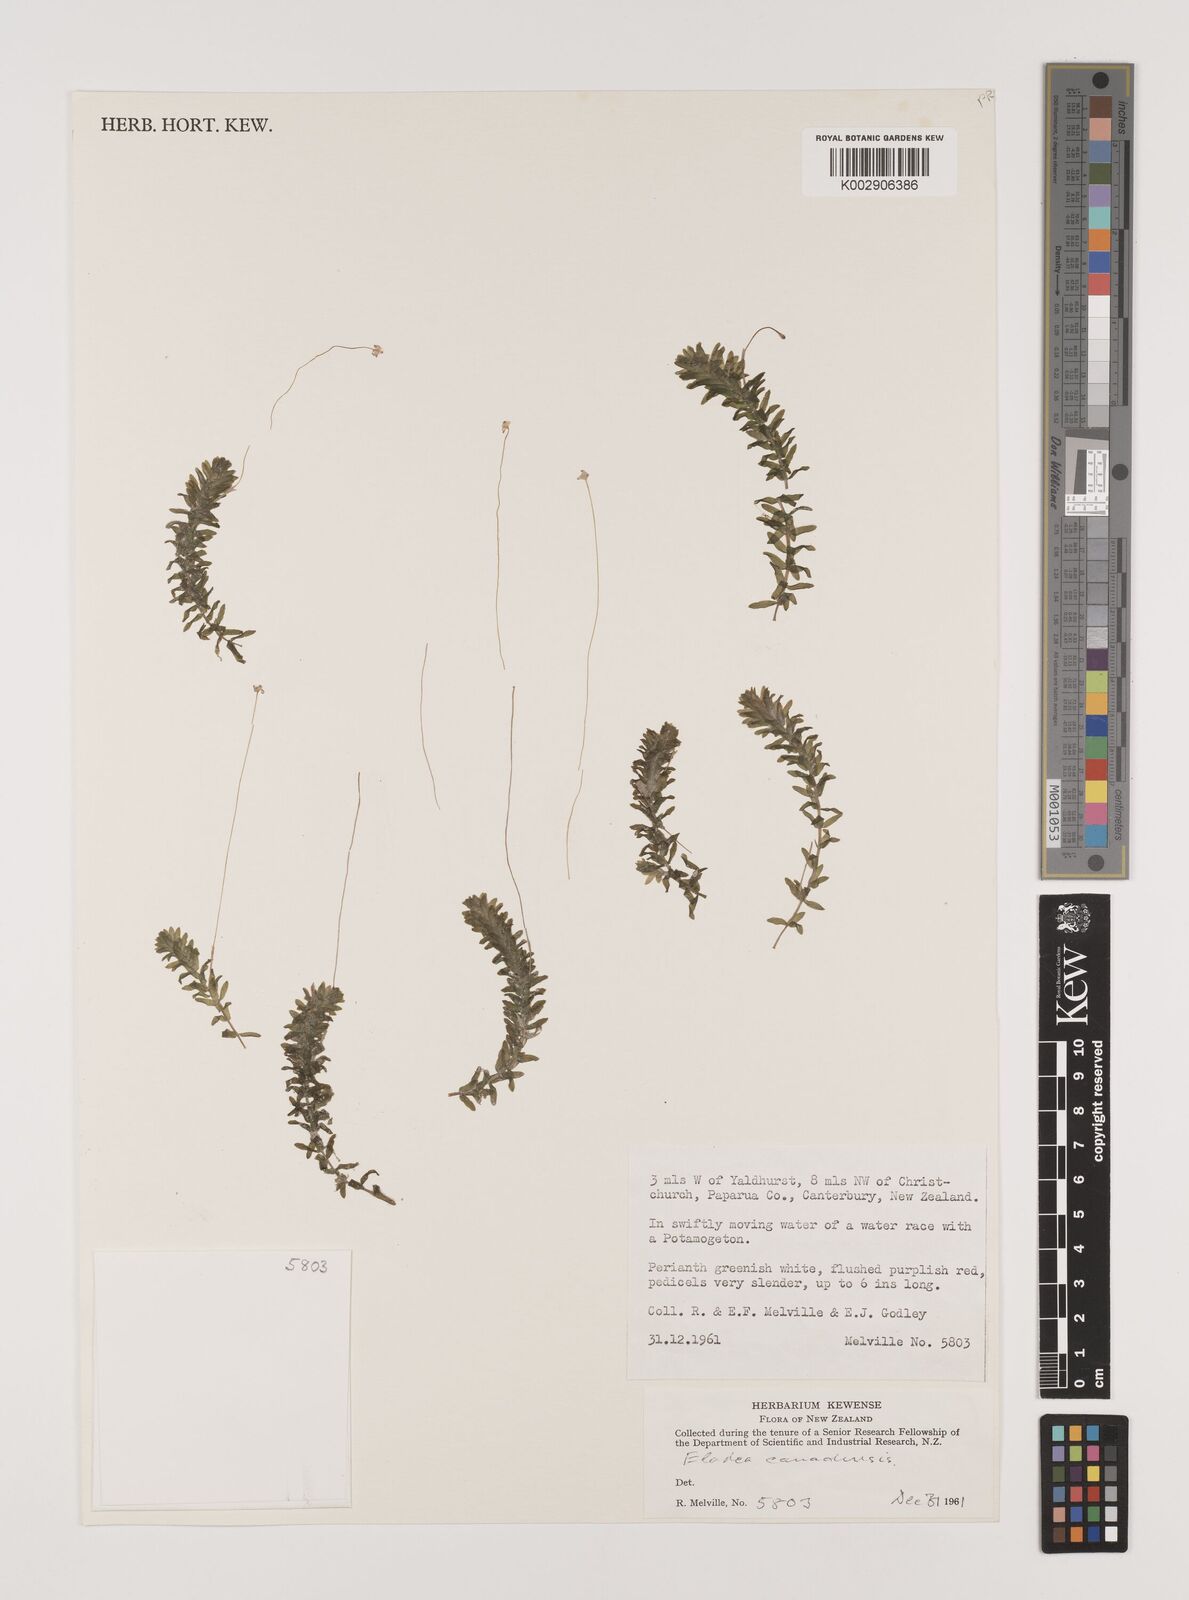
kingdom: Plantae
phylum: Tracheophyta
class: Liliopsida
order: Alismatales
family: Hydrocharitaceae
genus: Elodea
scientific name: Elodea canadensis
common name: Canadian waterweed
